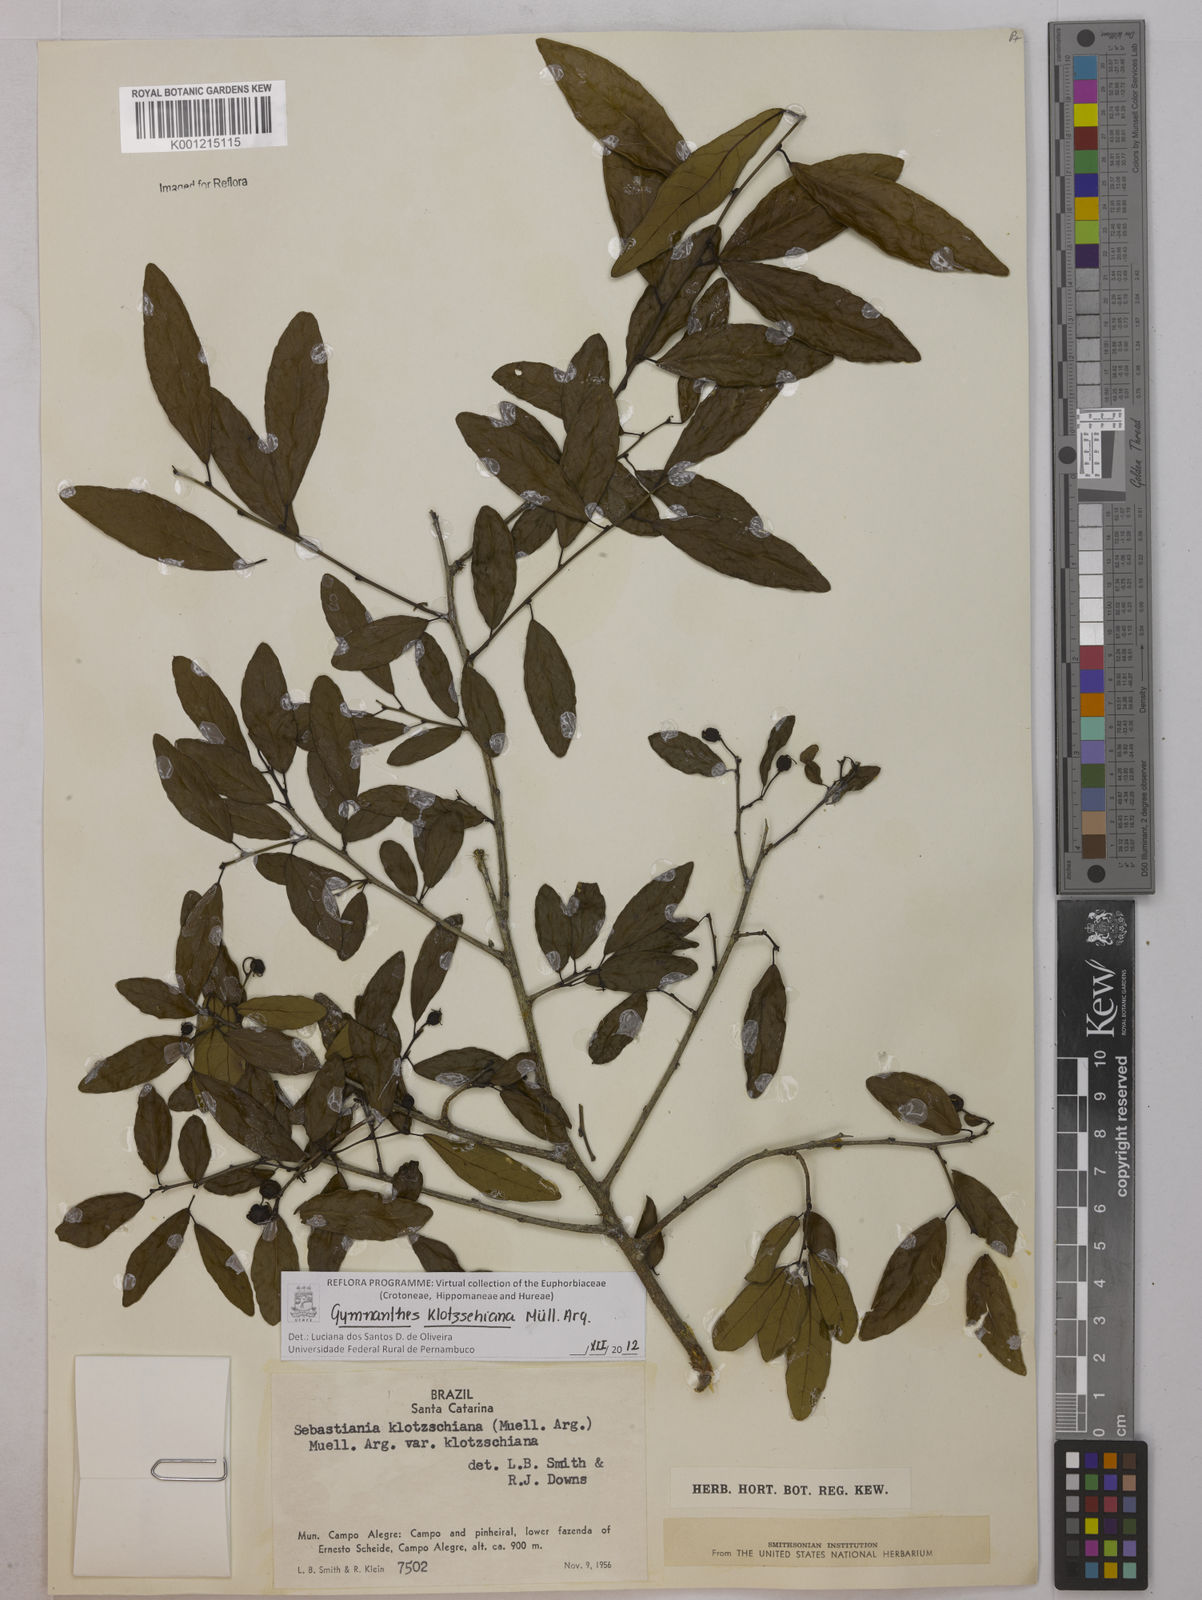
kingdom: Plantae
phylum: Tracheophyta
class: Magnoliopsida
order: Malpighiales
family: Euphorbiaceae
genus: Gymnanthes
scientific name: Gymnanthes
